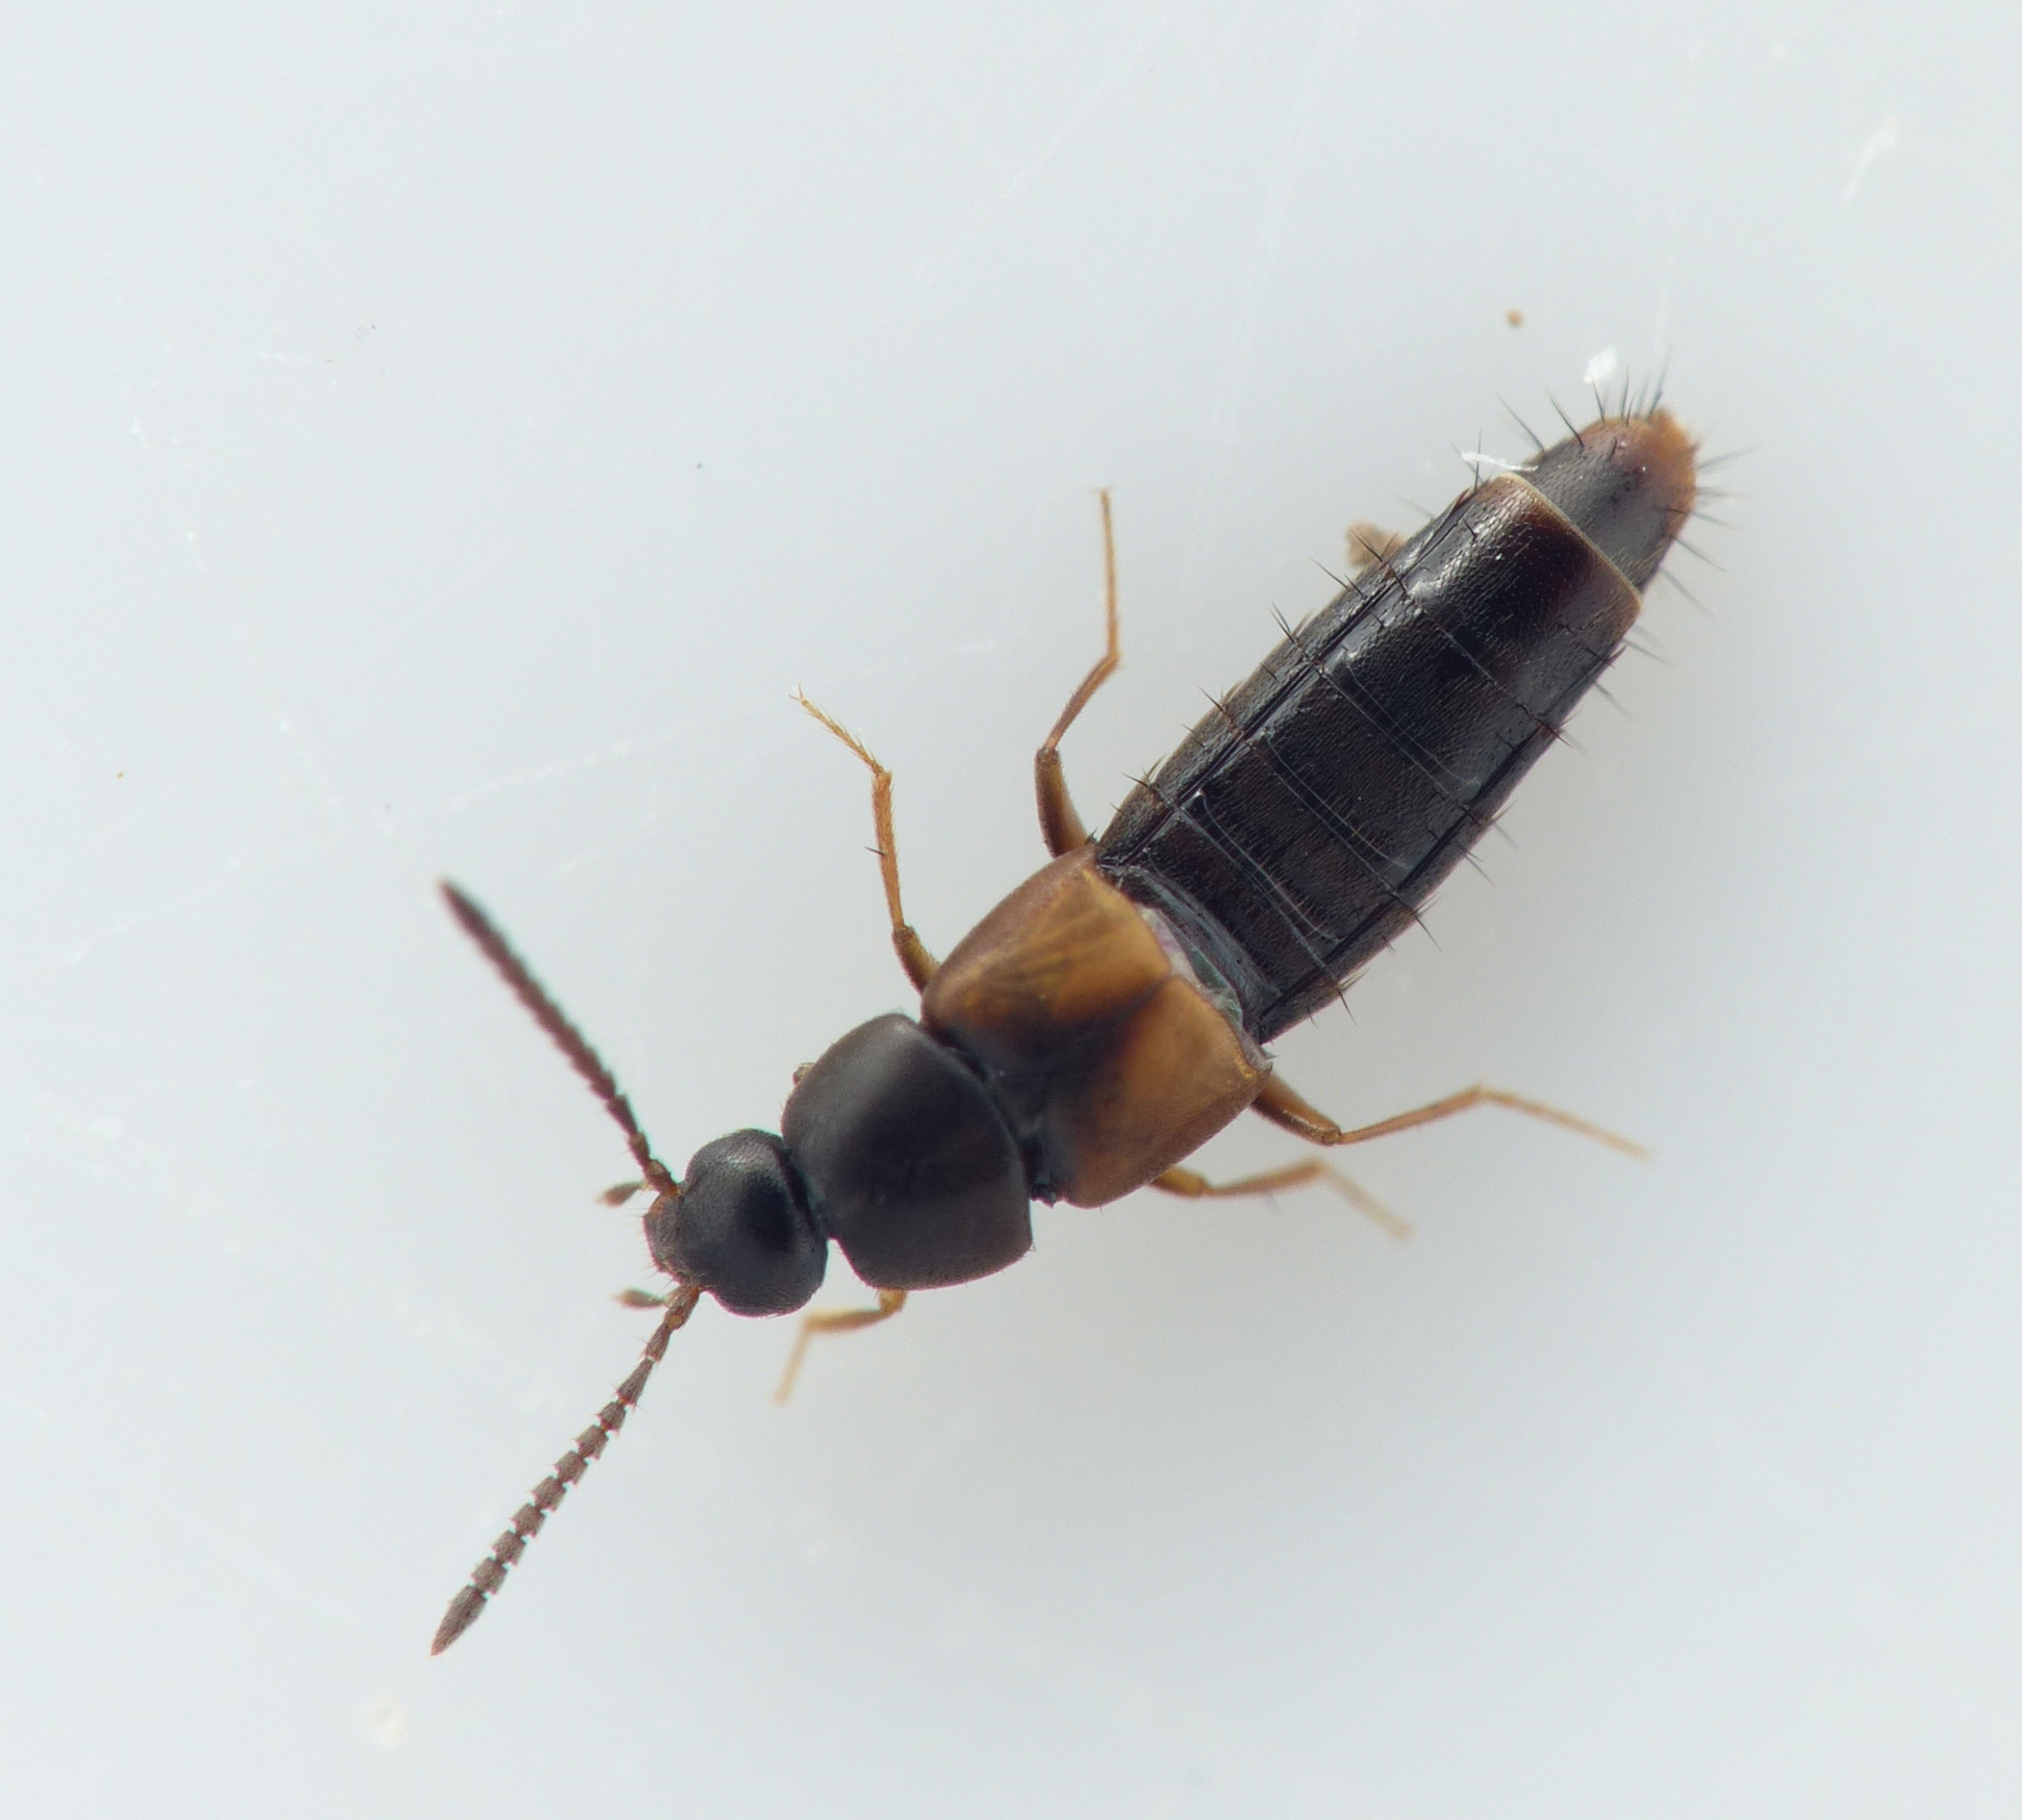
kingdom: Animalia
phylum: Arthropoda
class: Insecta
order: Coleoptera
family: Staphylinidae
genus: Nehemitropia
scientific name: Nehemitropia lividipennis
